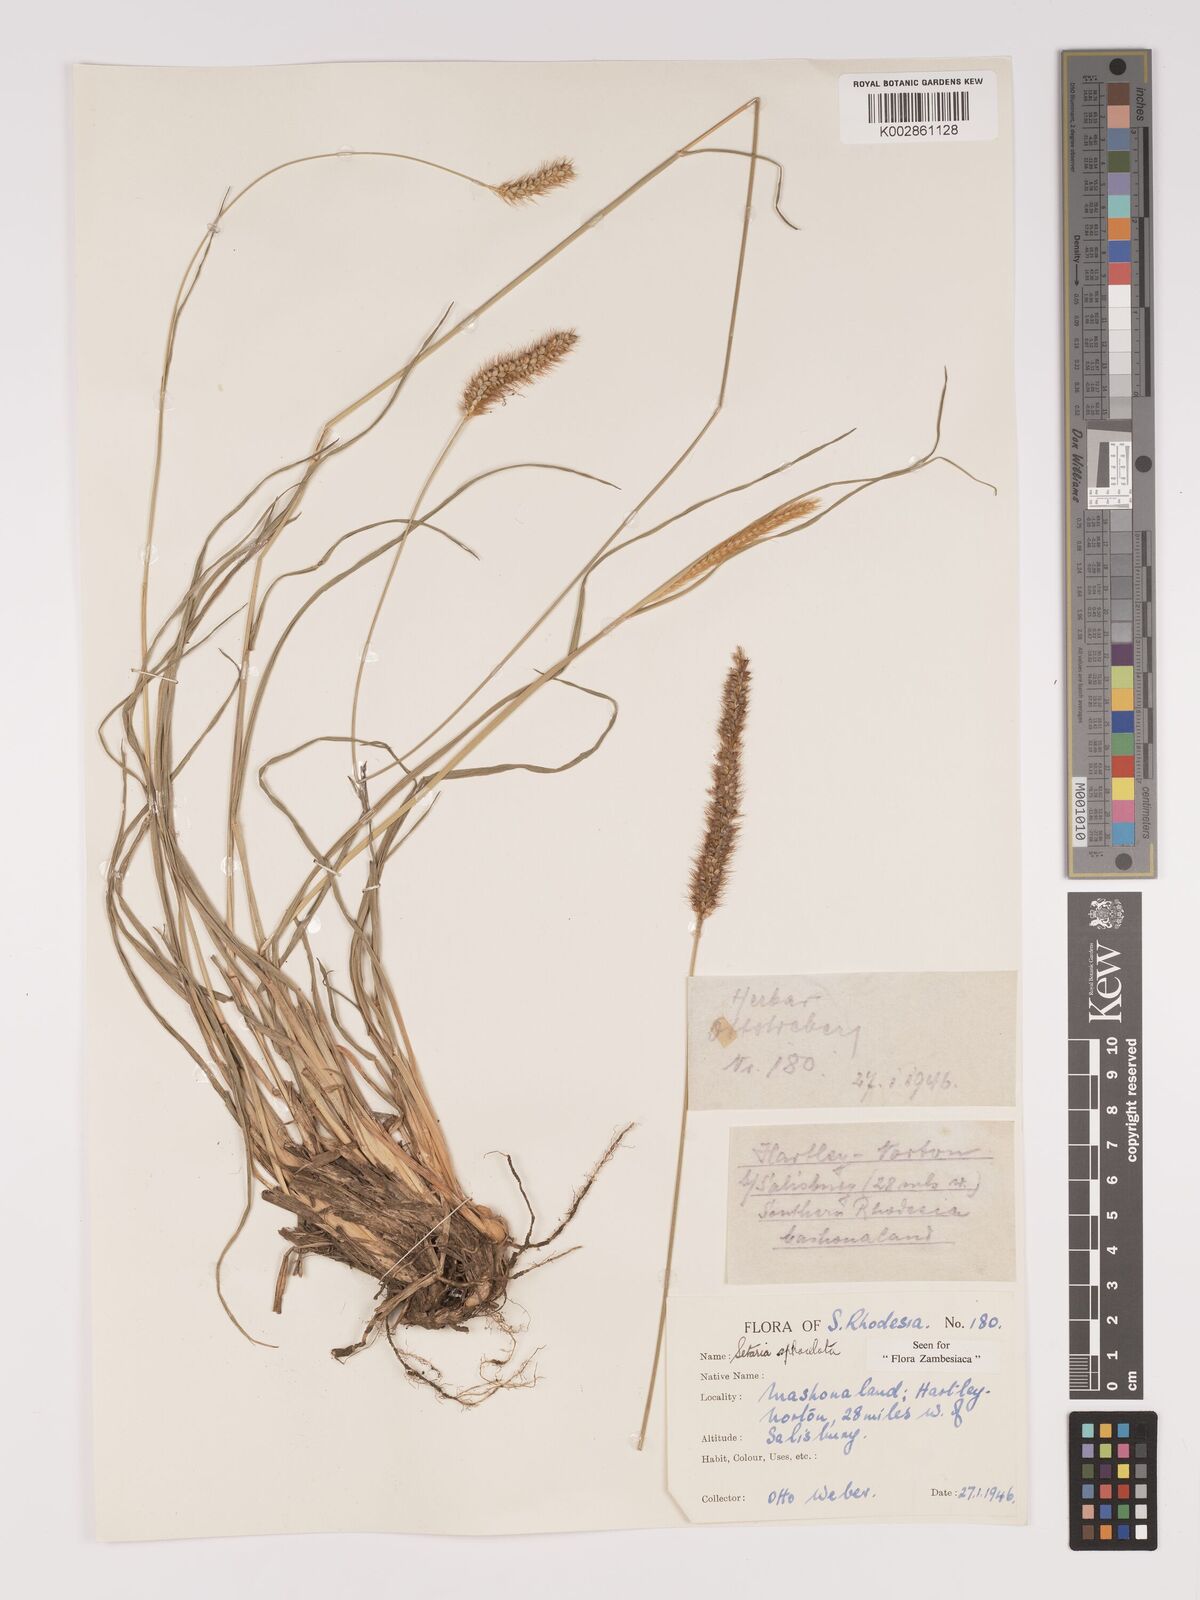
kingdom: Plantae
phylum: Tracheophyta
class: Liliopsida
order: Poales
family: Poaceae
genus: Setaria
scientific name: Setaria sphacelata
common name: African bristlegrass
